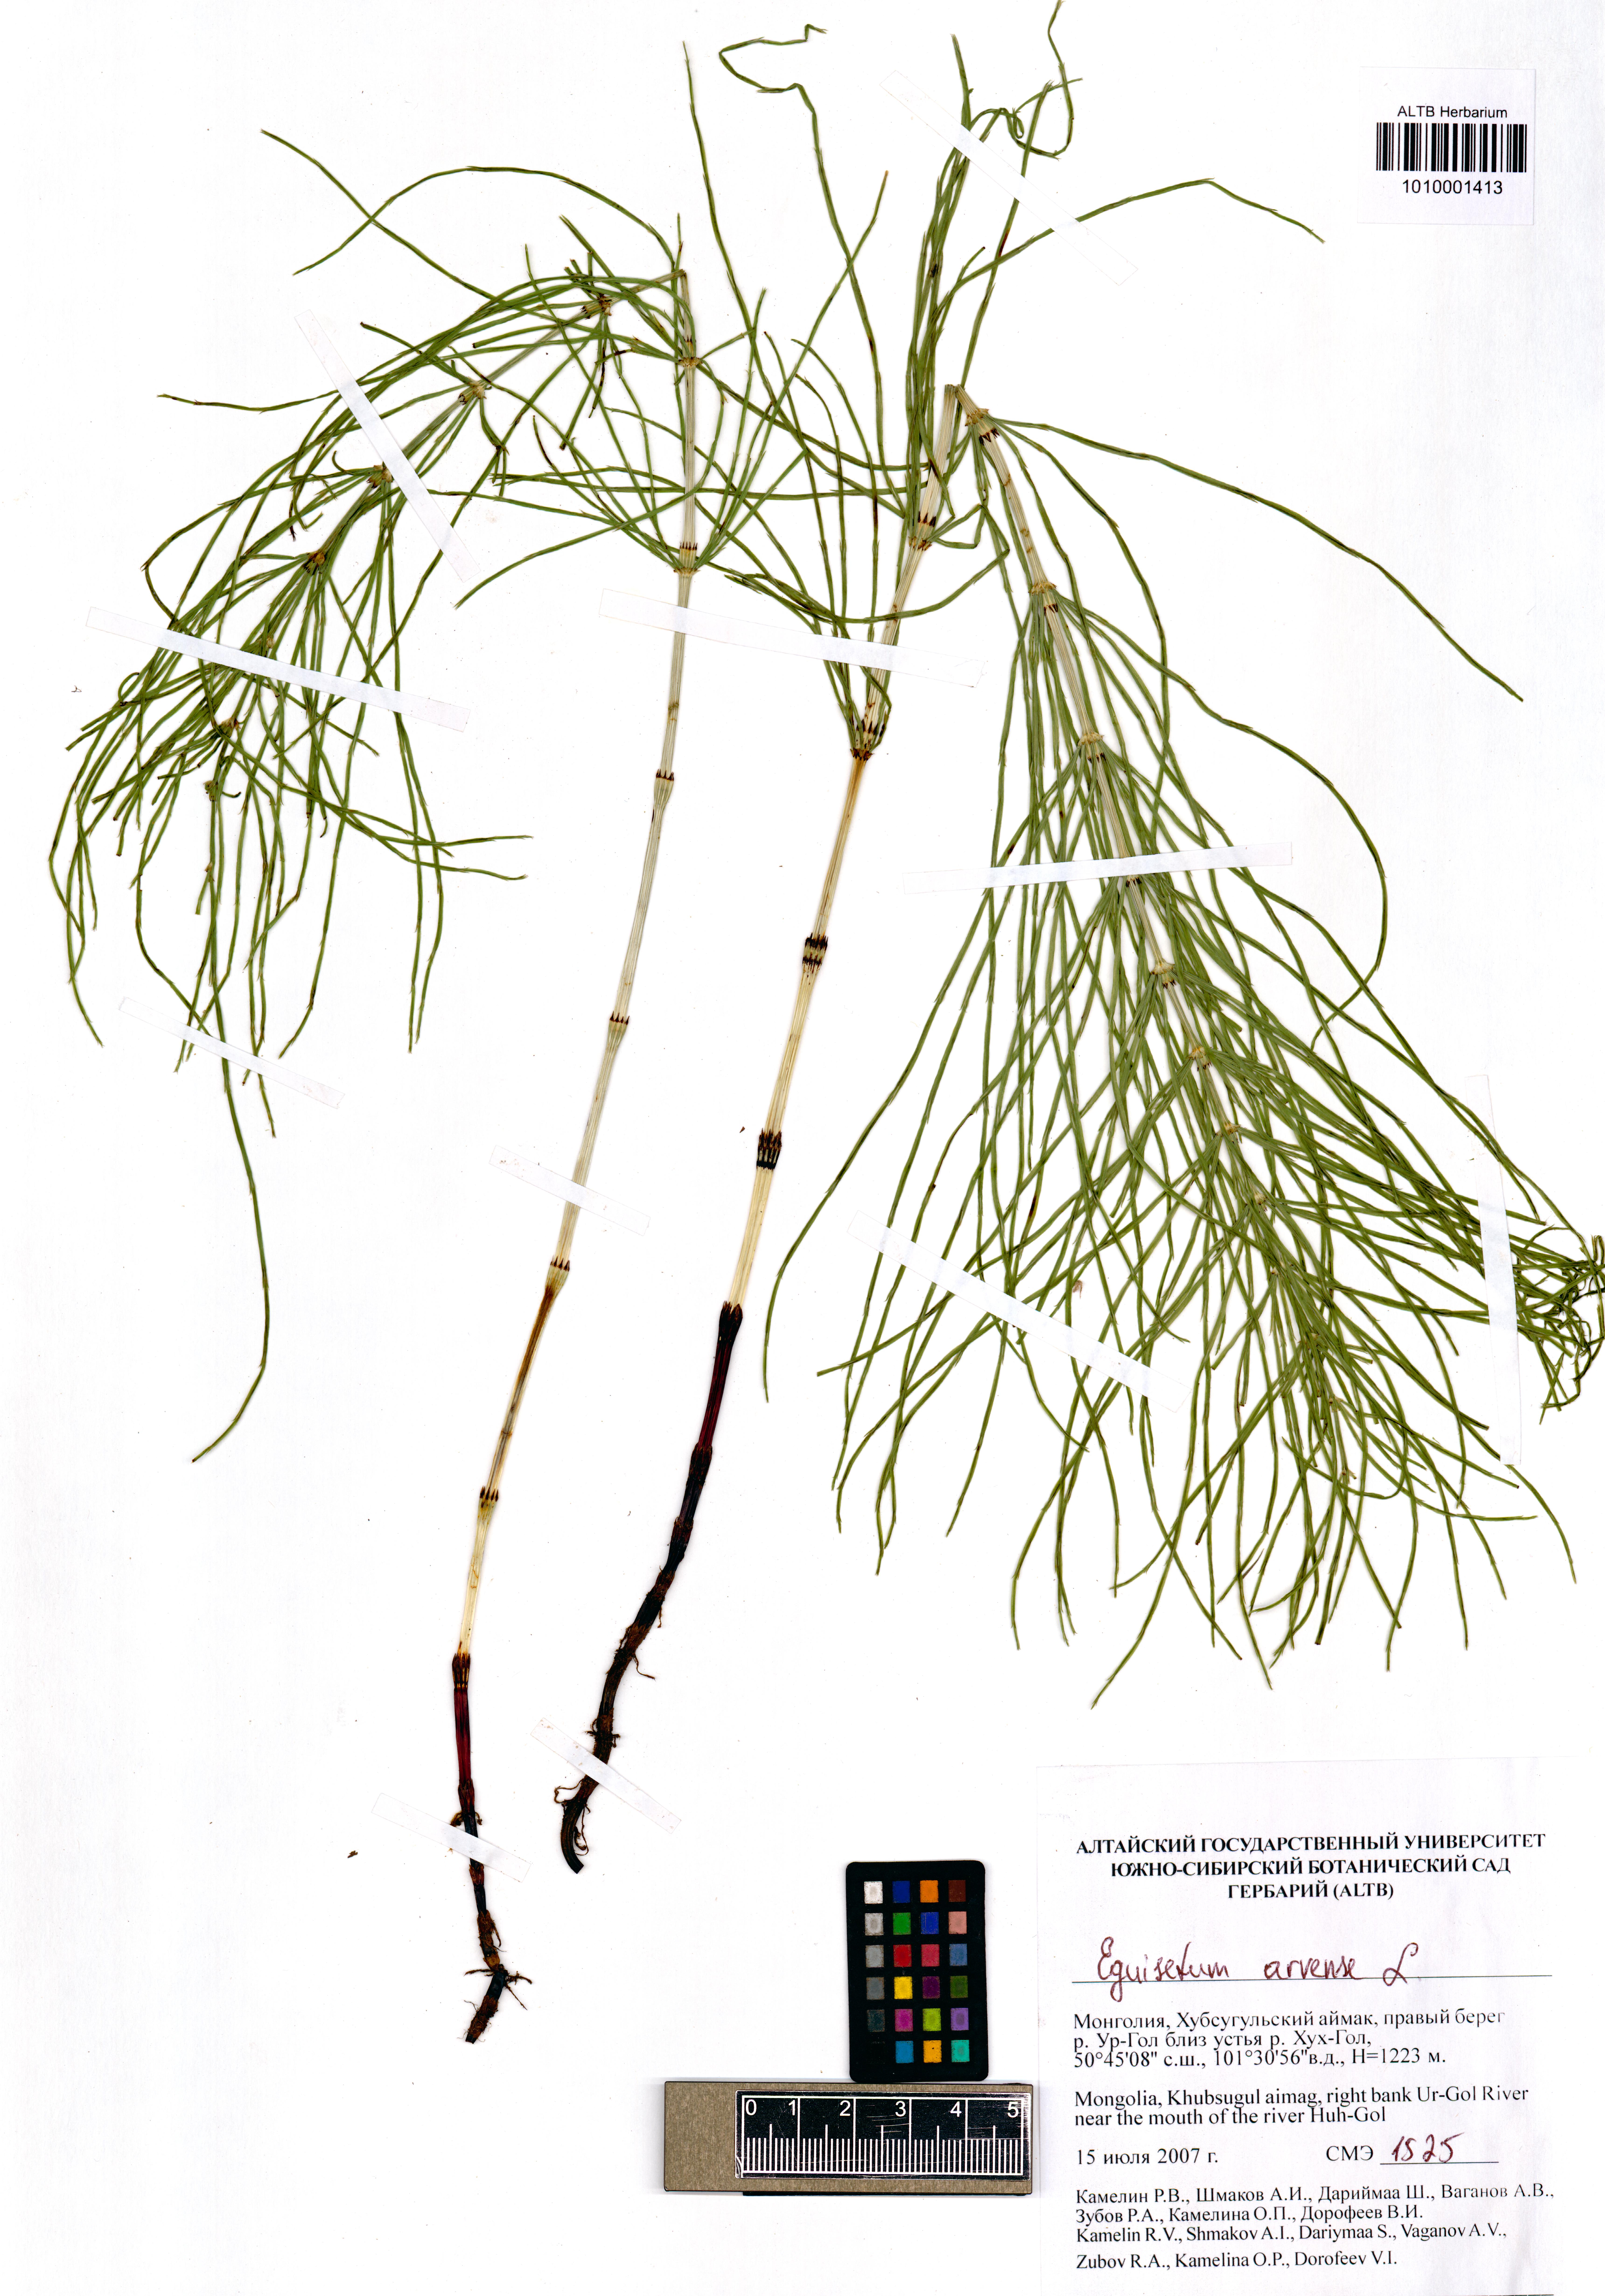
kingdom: Plantae
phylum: Tracheophyta
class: Polypodiopsida
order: Equisetales
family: Equisetaceae
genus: Equisetum
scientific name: Equisetum arvense
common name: Field horsetail
